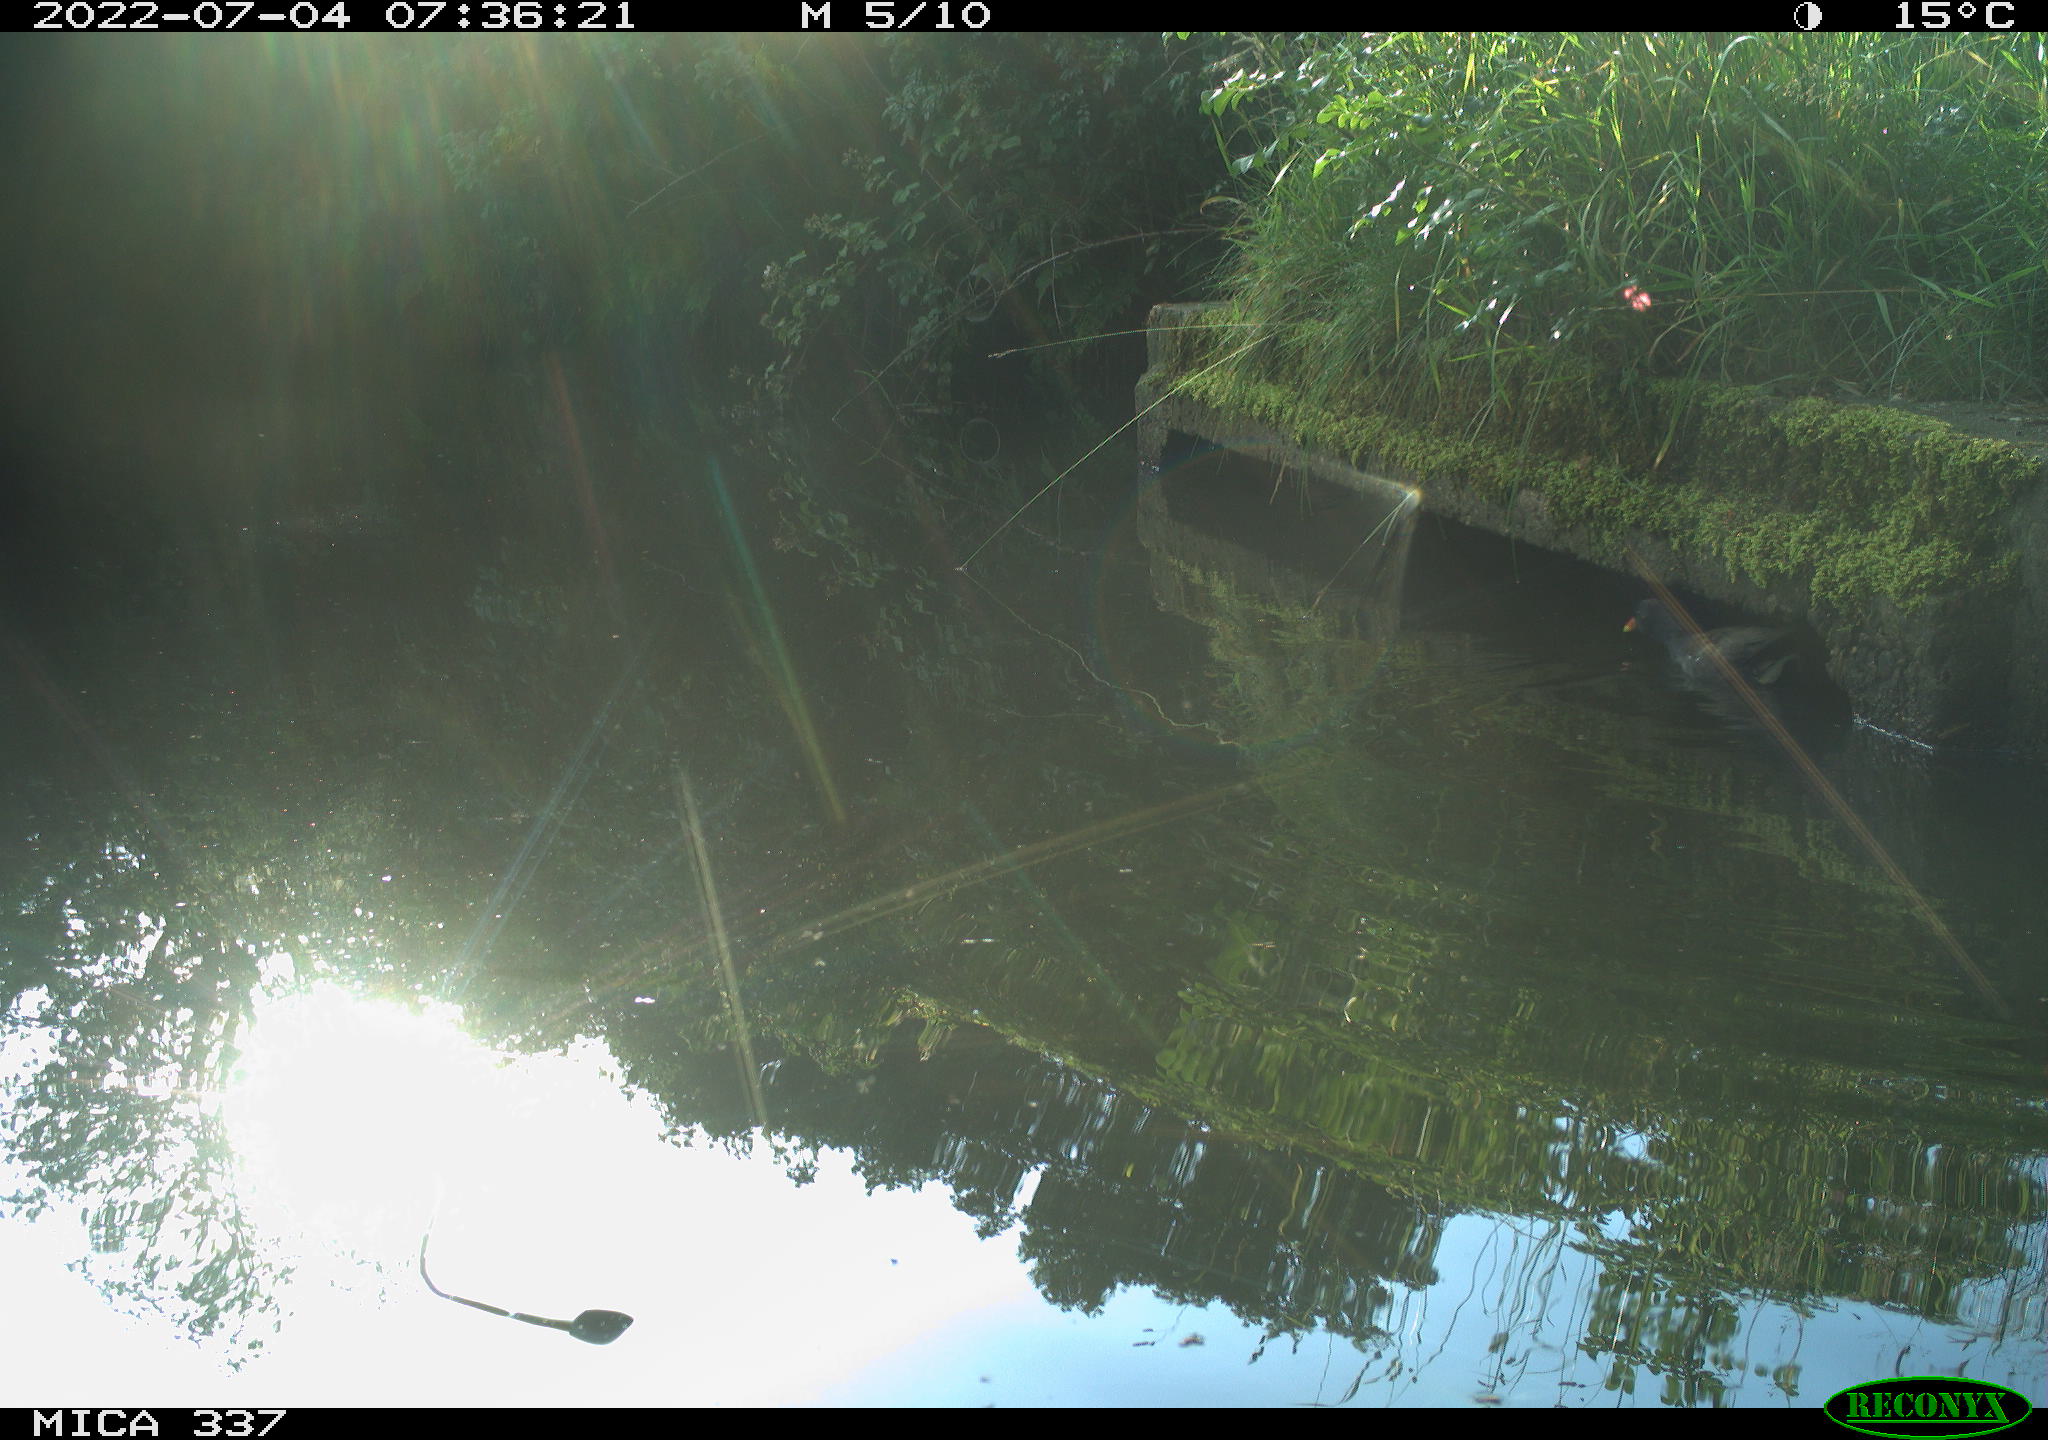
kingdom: Animalia
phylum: Chordata
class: Aves
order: Gruiformes
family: Rallidae
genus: Gallinula
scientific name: Gallinula chloropus
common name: Common moorhen
